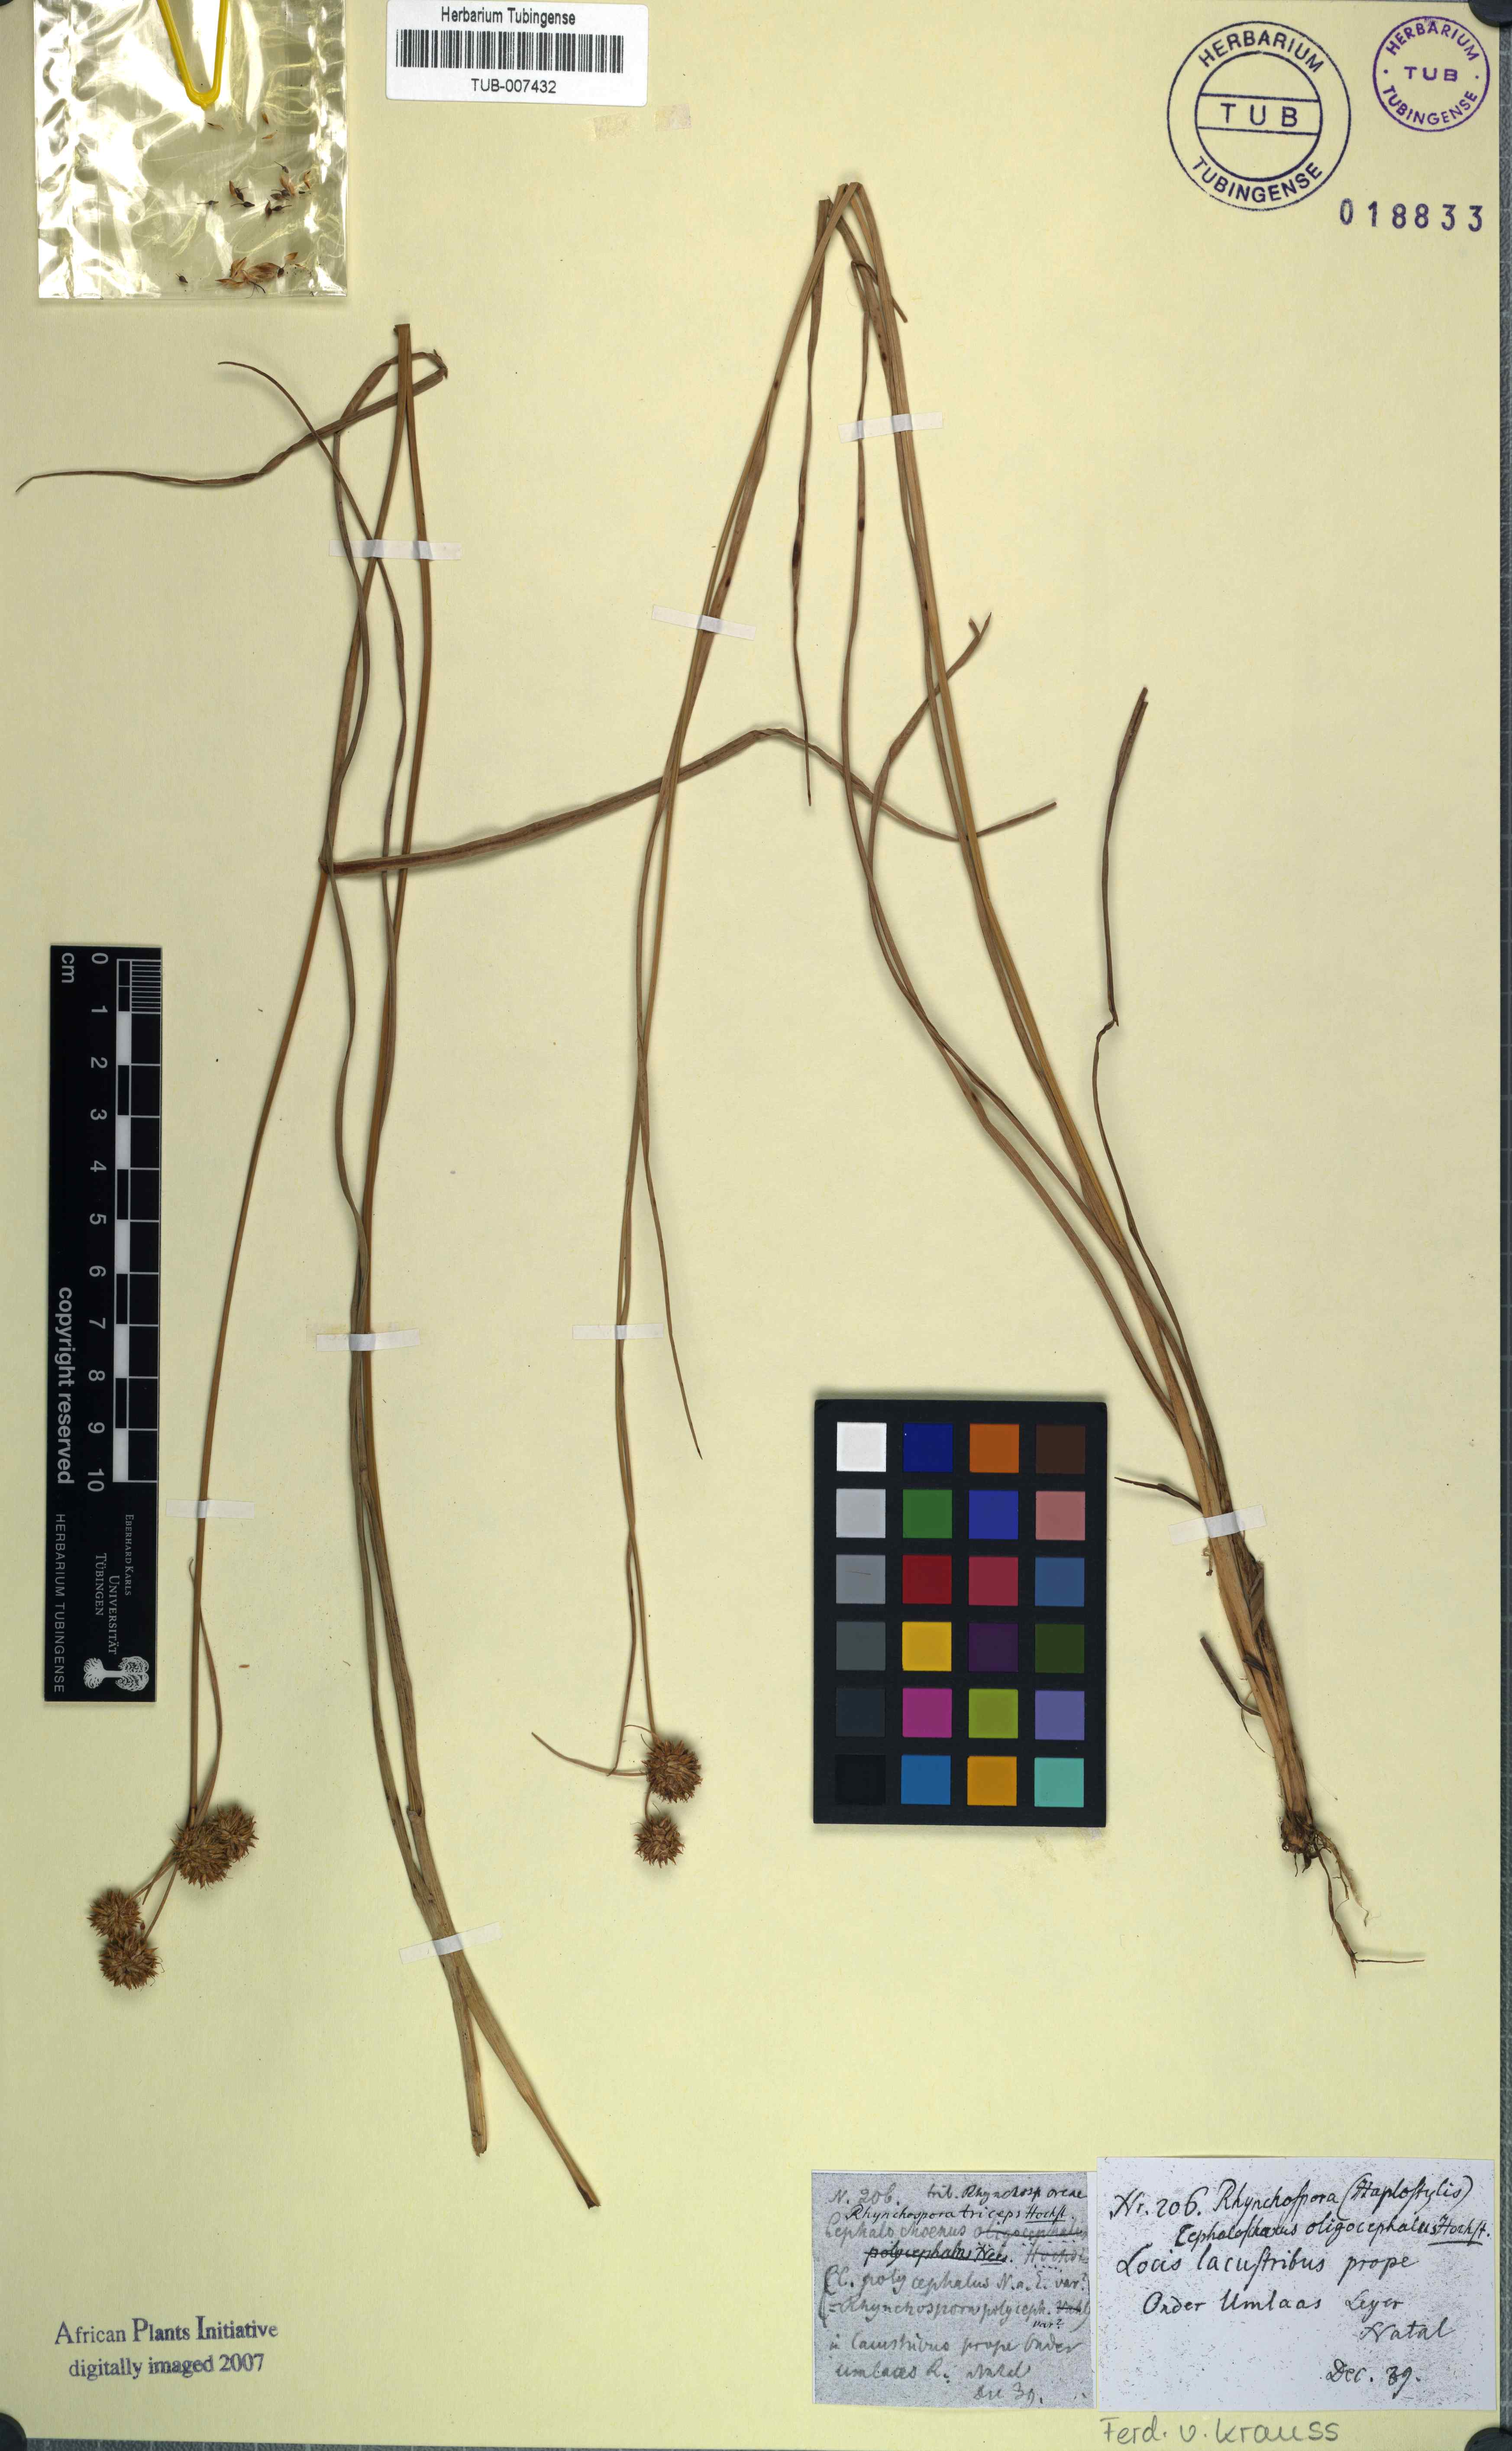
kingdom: Plantae
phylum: Tracheophyta
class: Liliopsida
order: Poales
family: Cyperaceae
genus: Rhynchospora
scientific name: Rhynchospora holoschoenoides
